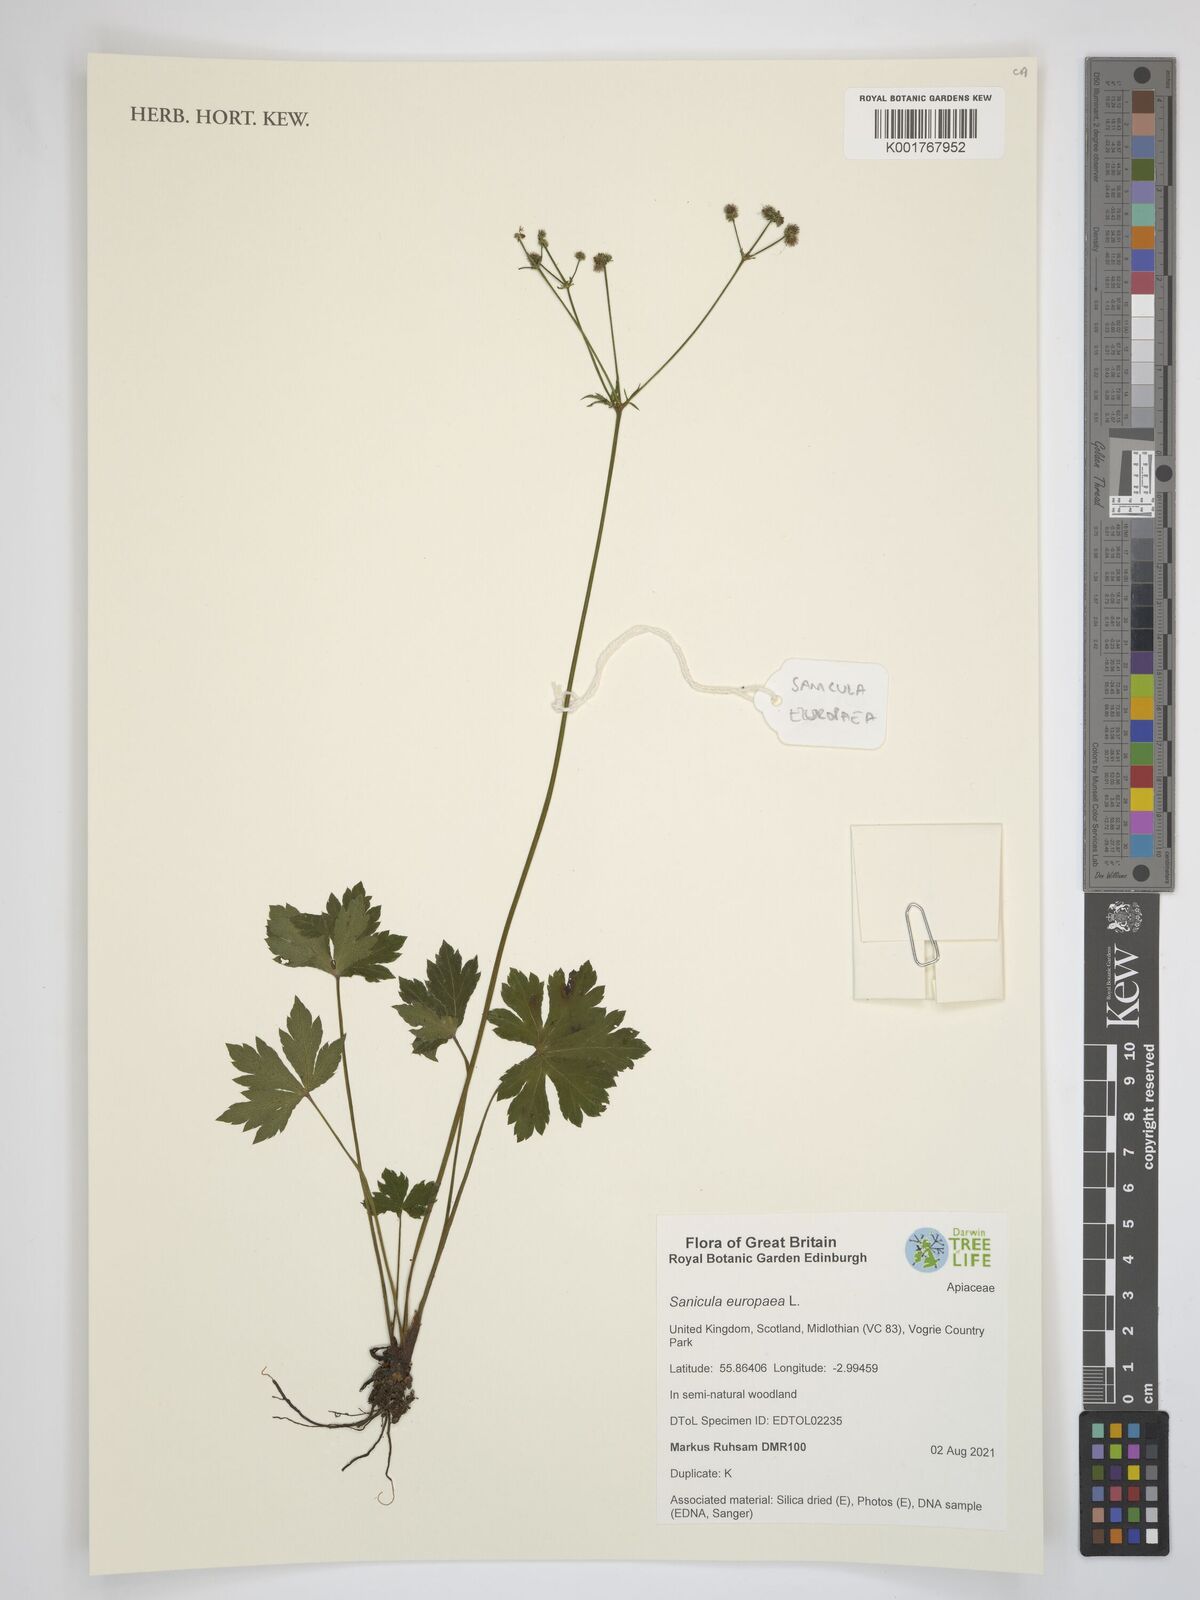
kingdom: Plantae
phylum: Tracheophyta
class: Magnoliopsida
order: Apiales
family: Apiaceae
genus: Sanicula
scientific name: Sanicula europaea
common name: Sanicle
